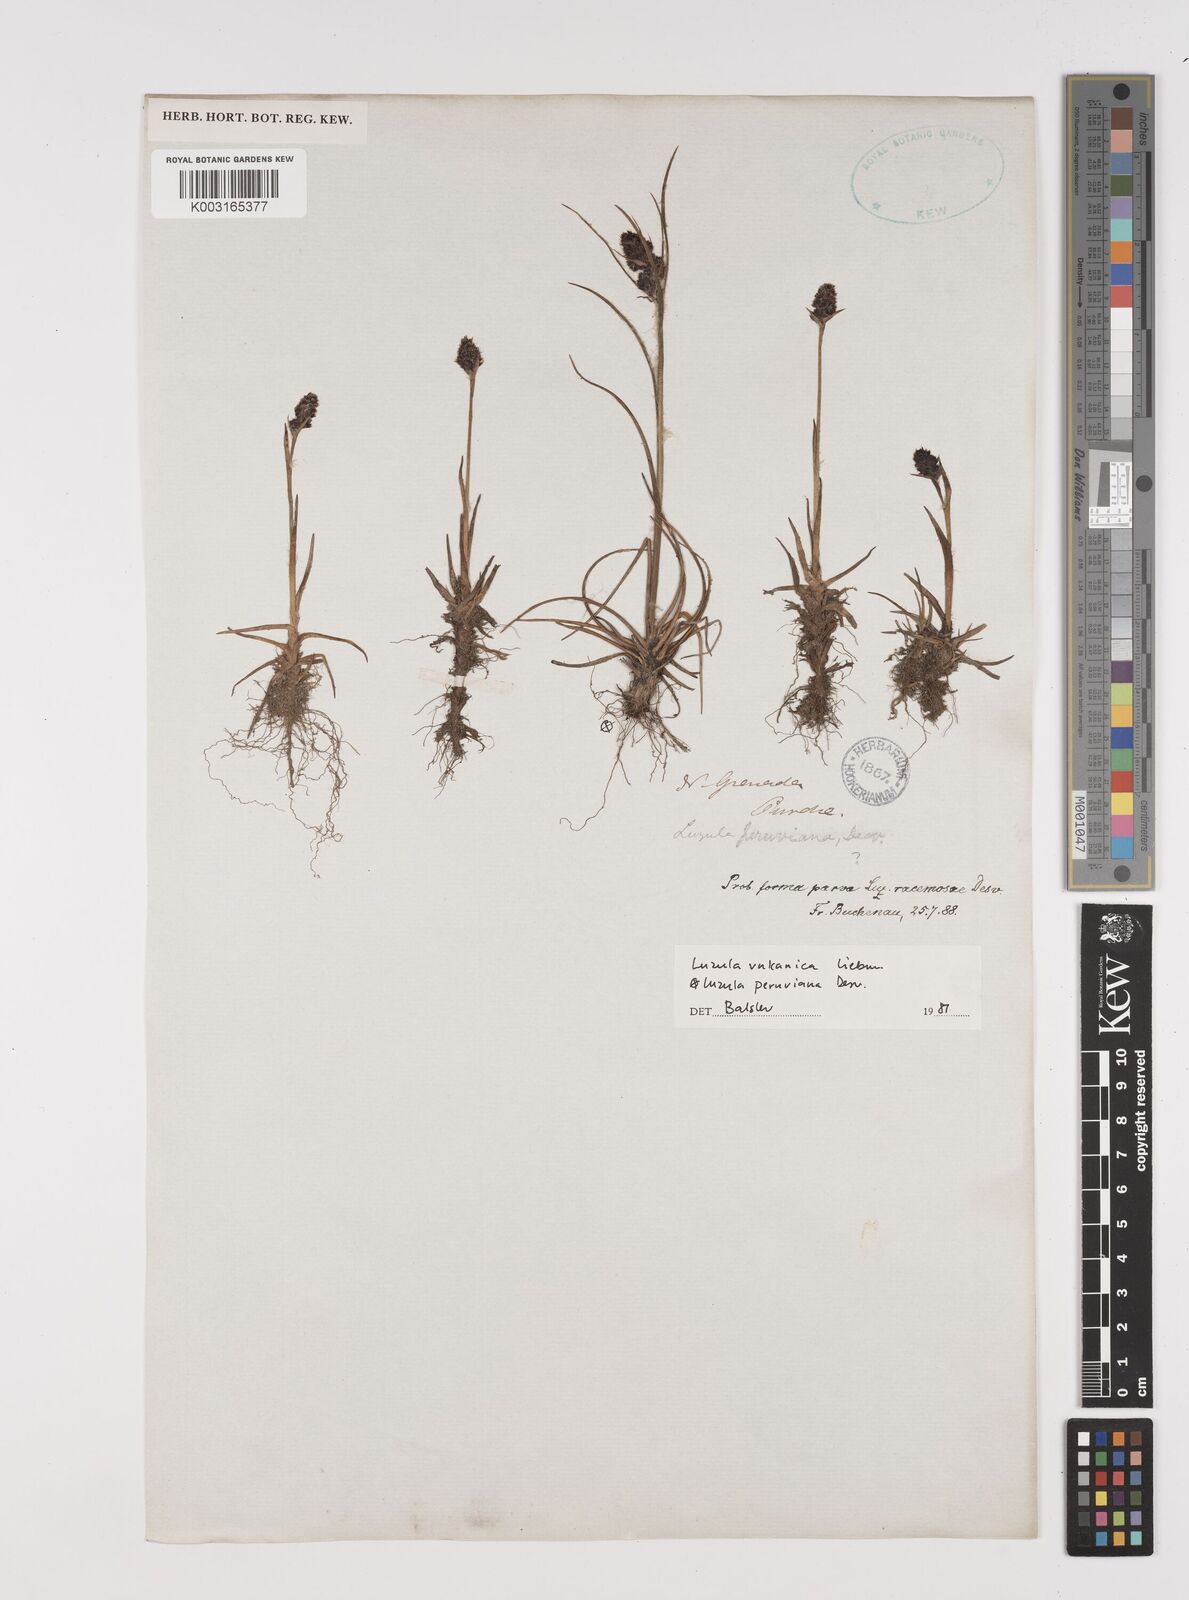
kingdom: Plantae
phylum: Tracheophyta
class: Liliopsida
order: Poales
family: Juncaceae
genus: Luzula
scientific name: Luzula vulcanica
